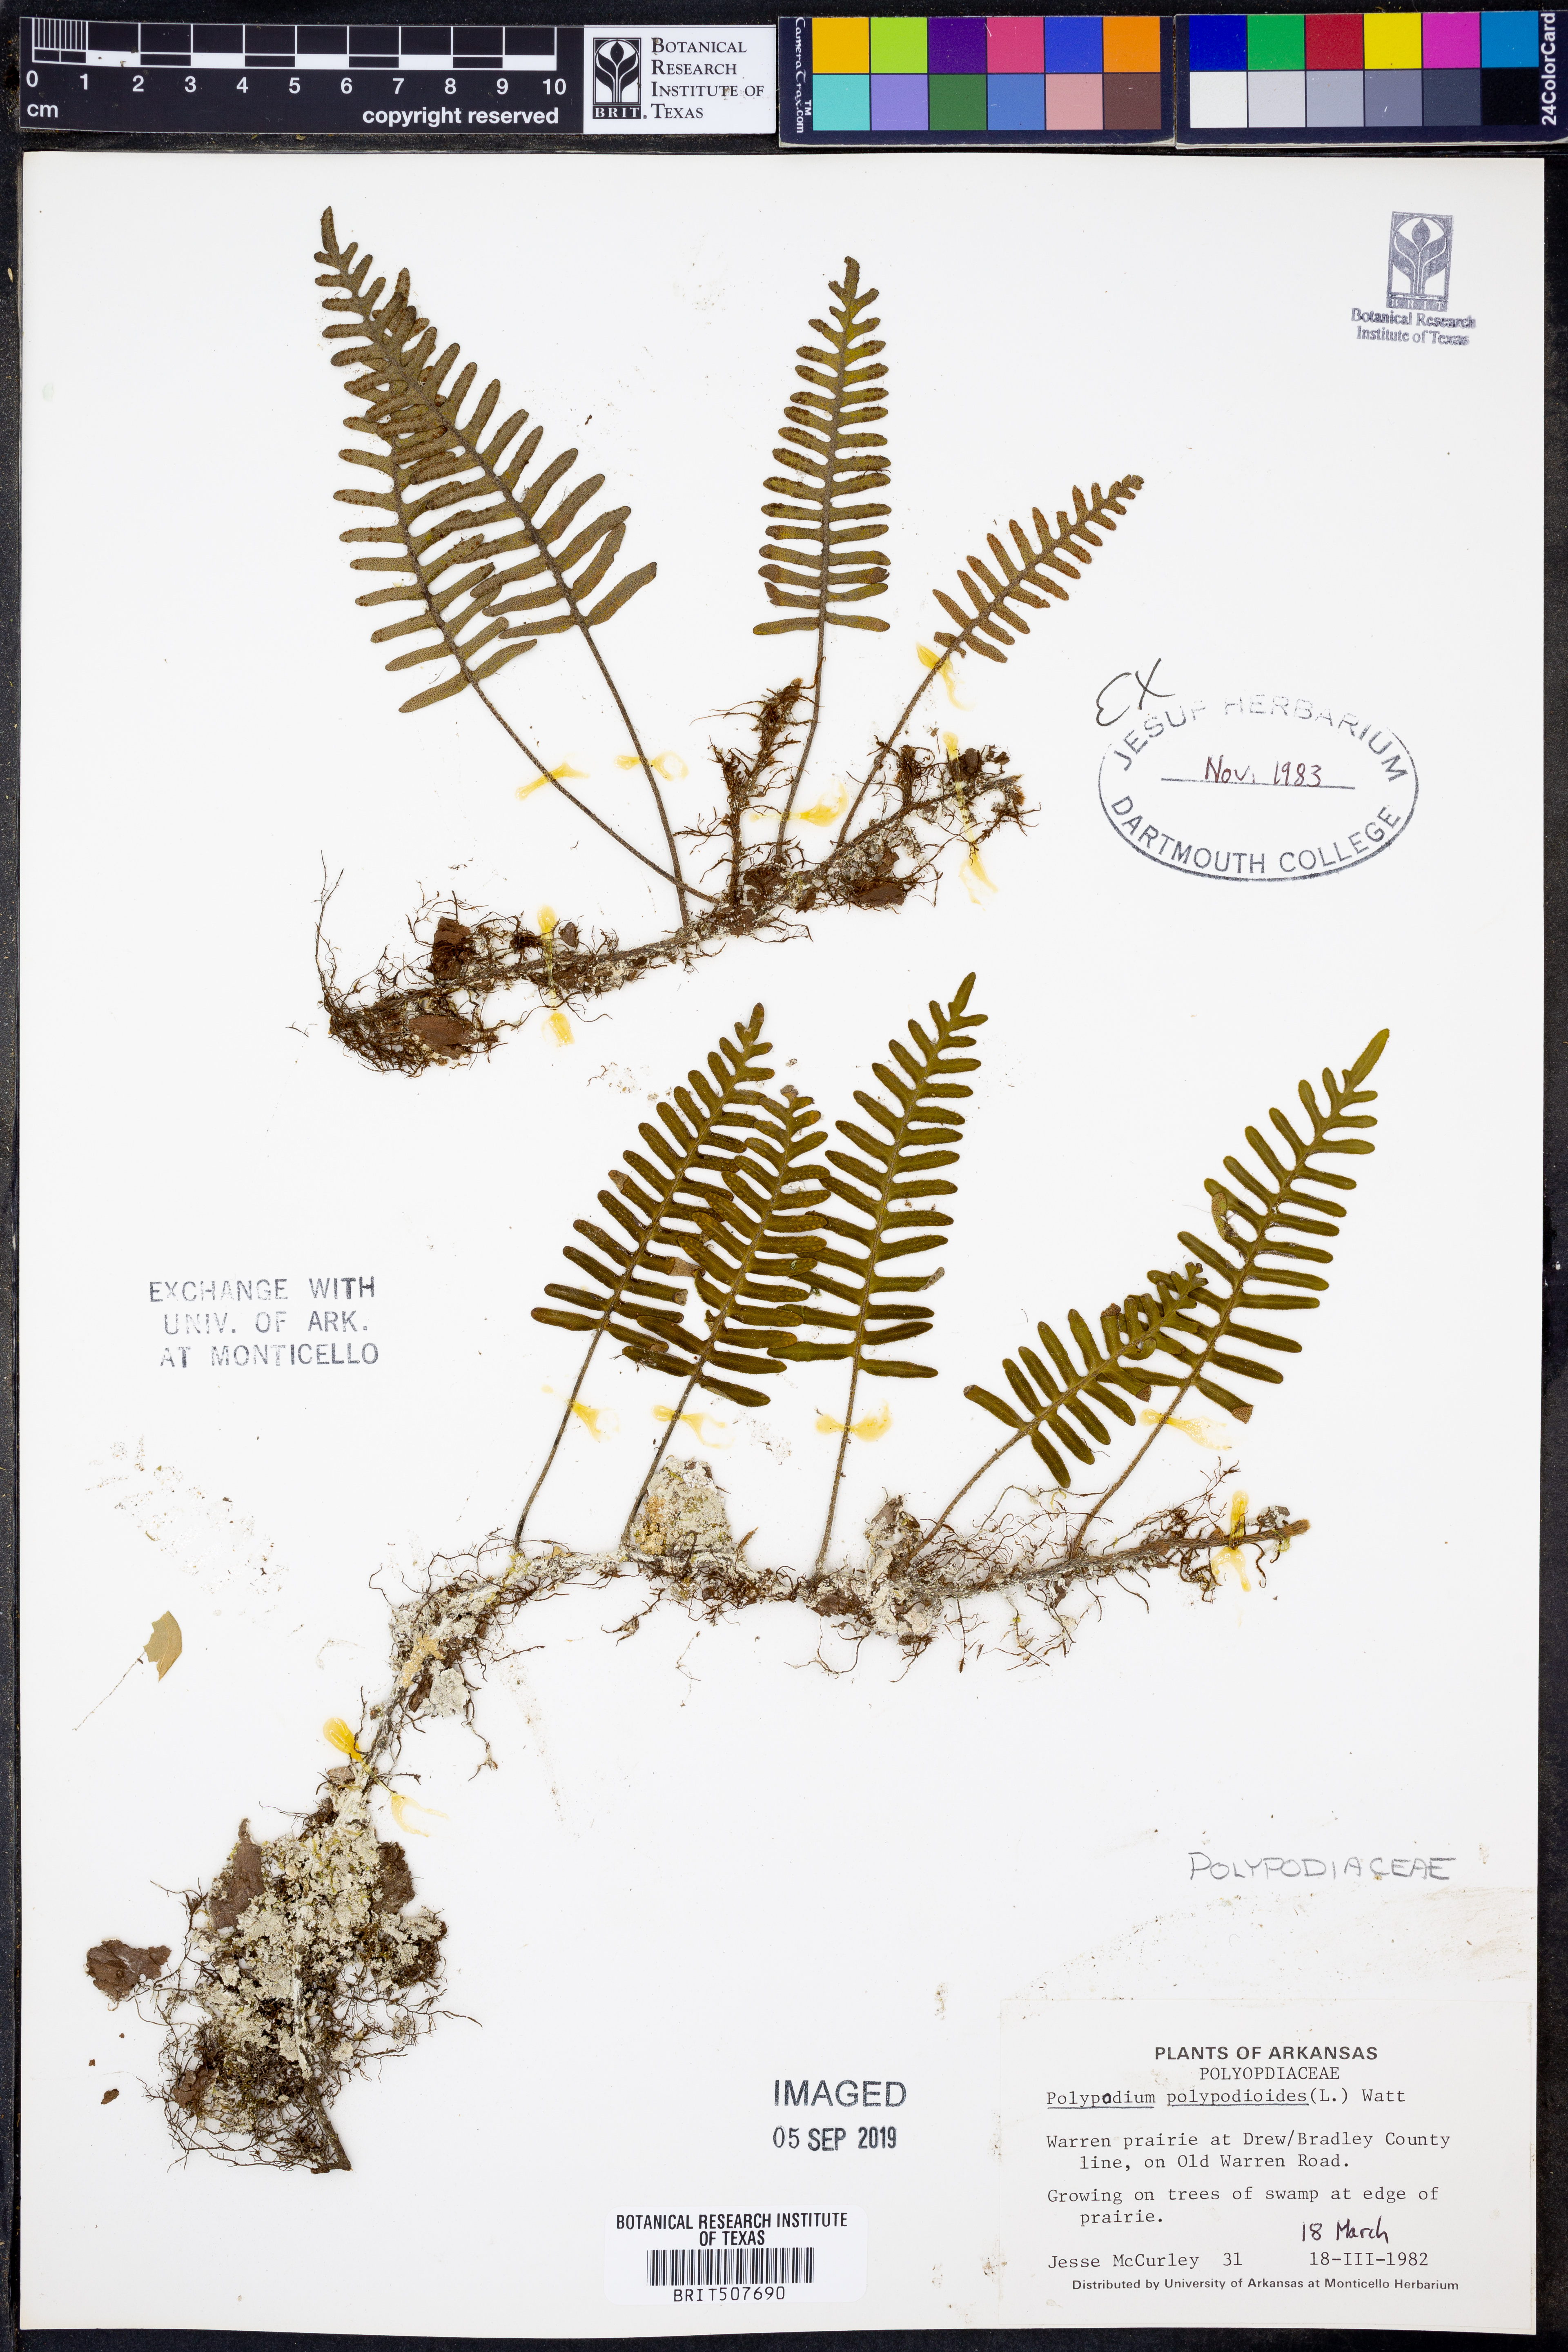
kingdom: Plantae
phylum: Tracheophyta
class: Polypodiopsida
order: Polypodiales
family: Polypodiaceae
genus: Pleopeltis
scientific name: Pleopeltis polypodioides
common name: Resurrection fern
